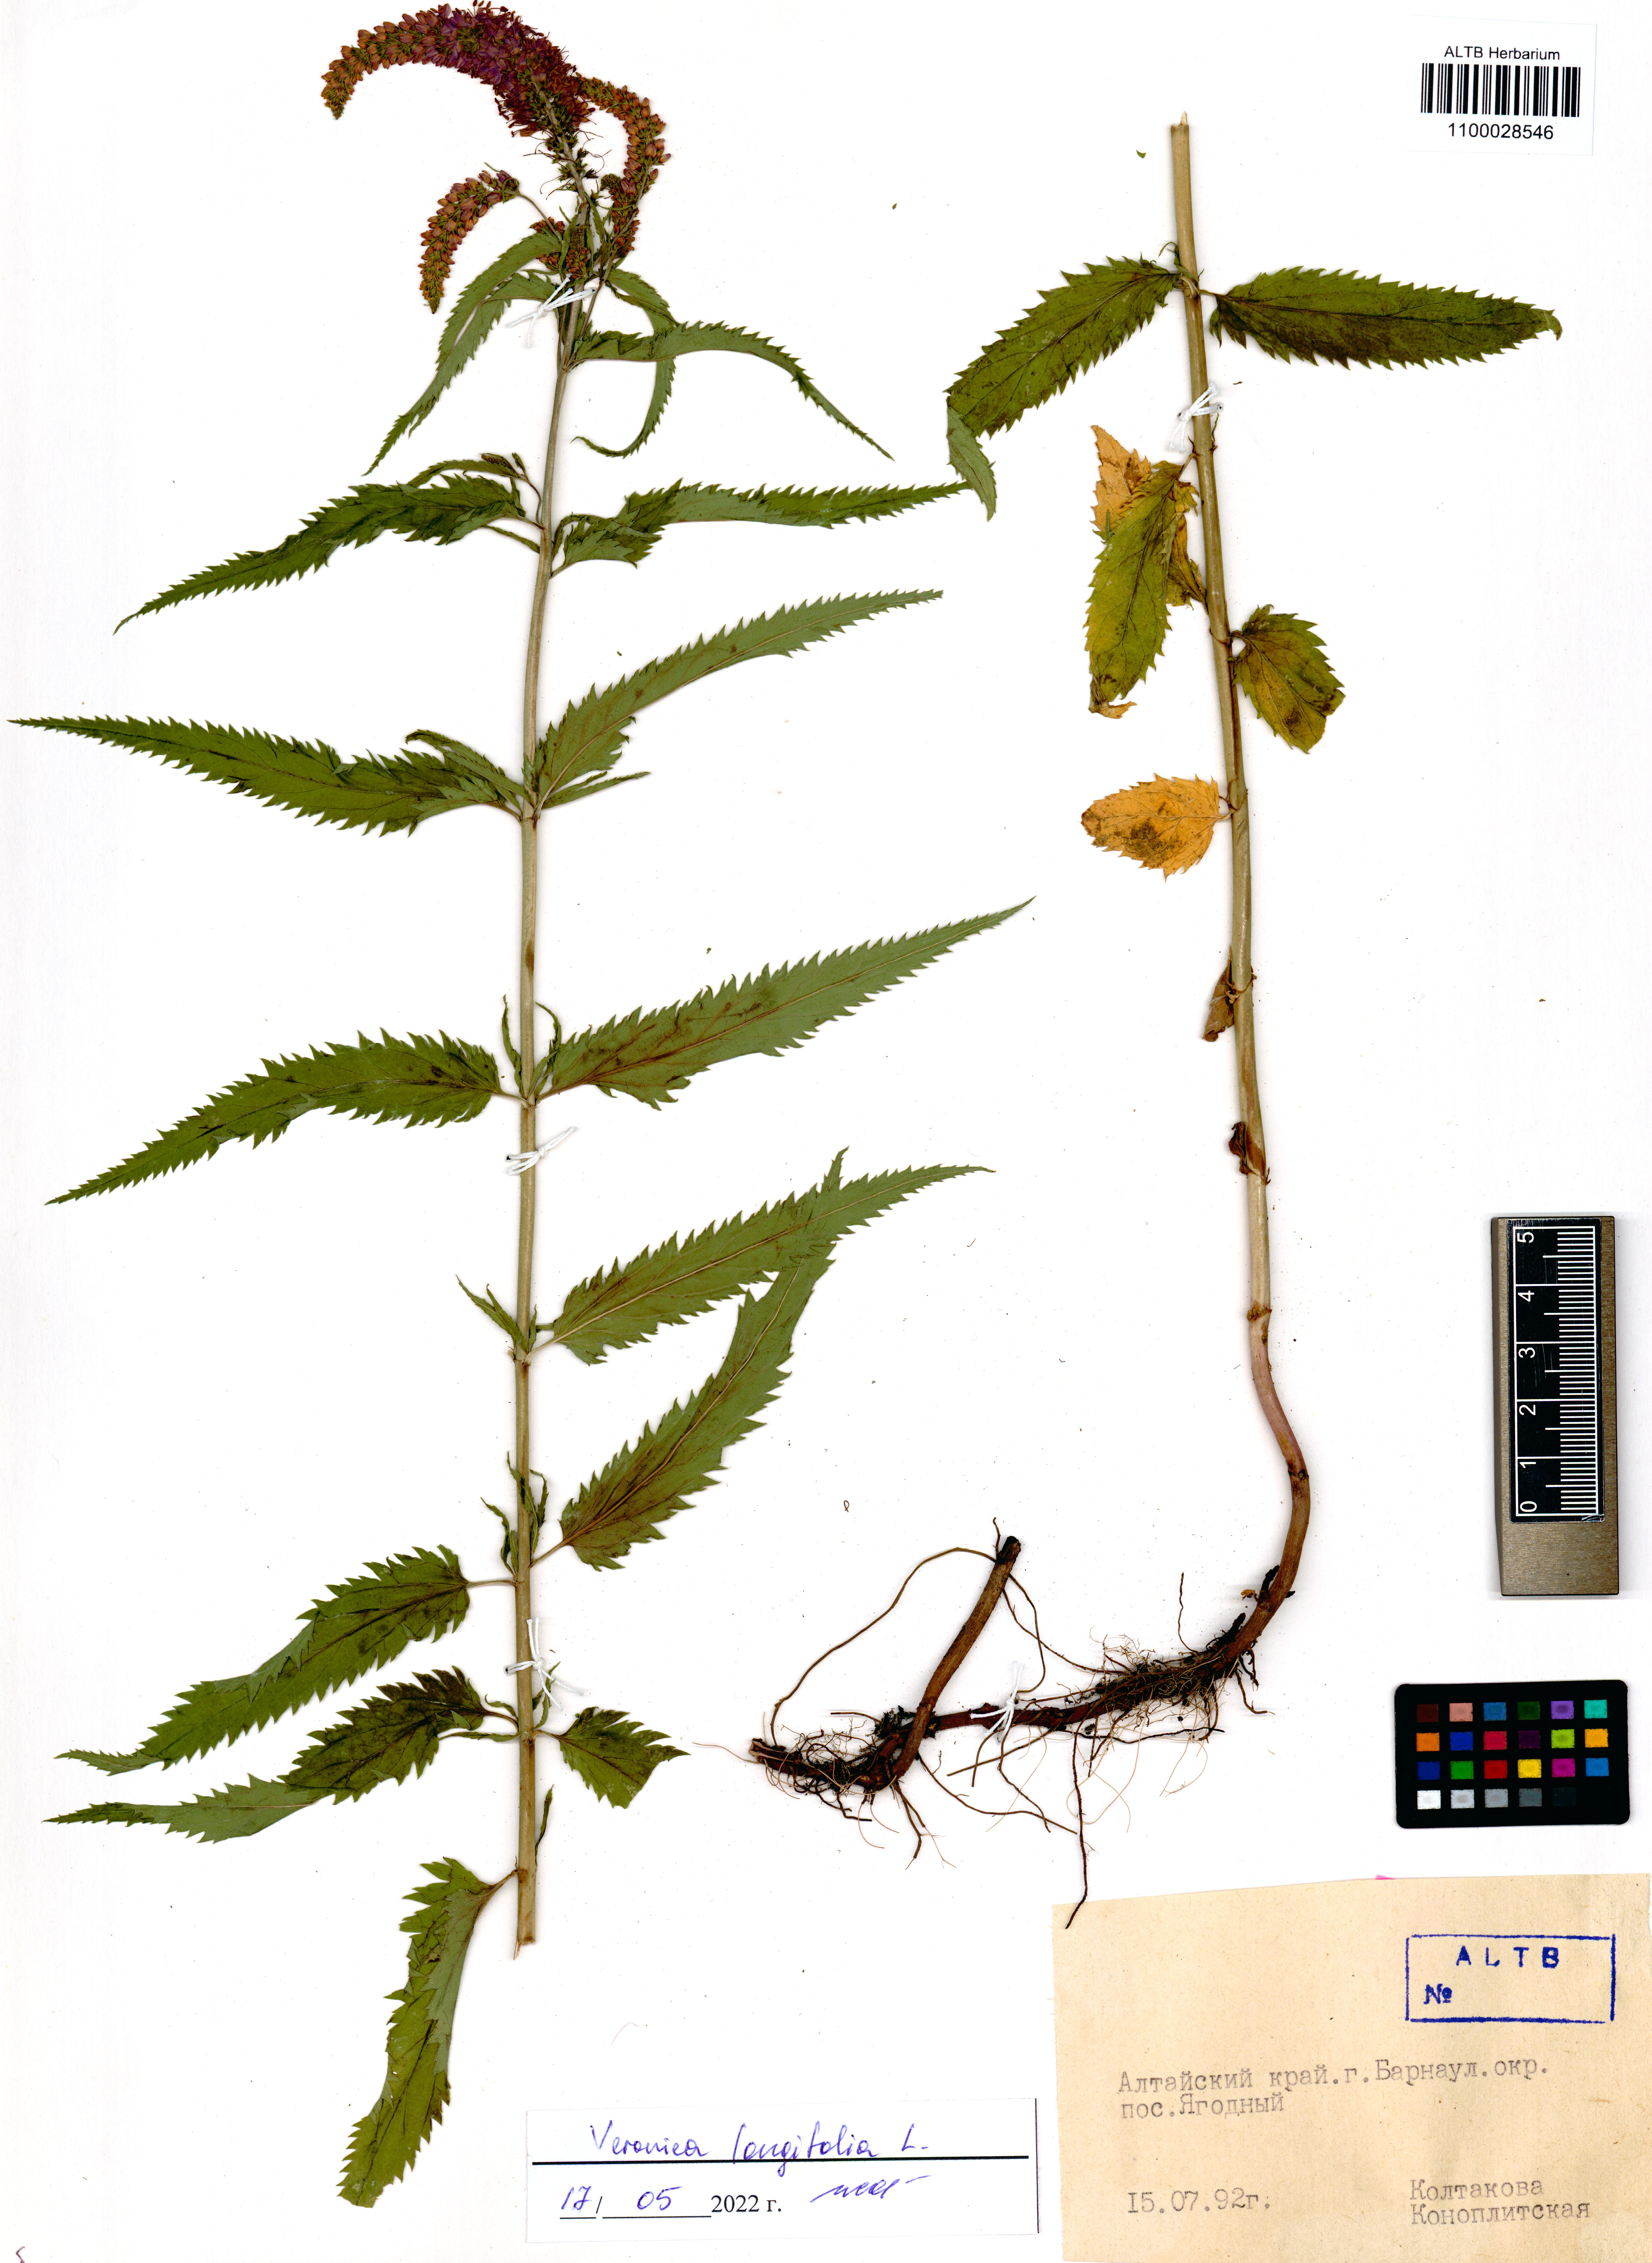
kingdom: Plantae
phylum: Tracheophyta
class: Magnoliopsida
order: Lamiales
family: Plantaginaceae
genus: Veronica
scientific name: Veronica longifolia
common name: Garden speedwell
